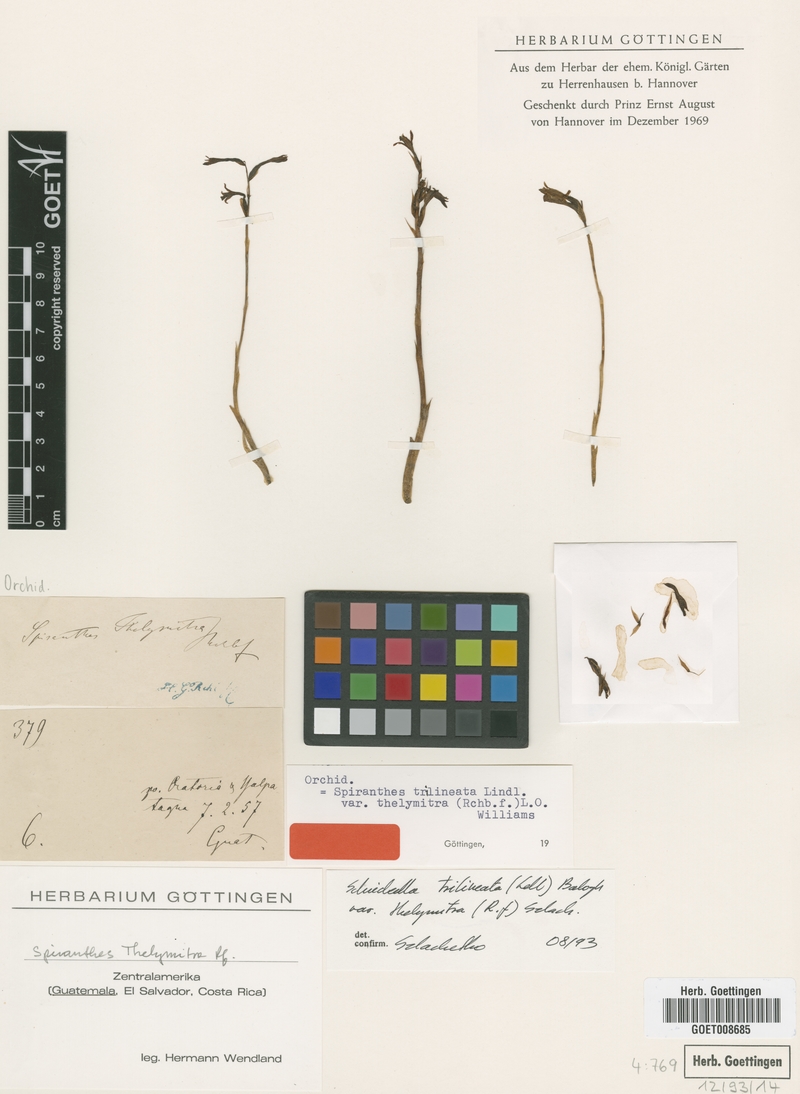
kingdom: Plantae
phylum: Tracheophyta
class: Liliopsida
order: Asparagales
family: Orchidaceae
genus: Schiedeella
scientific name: Schiedeella trilineata
